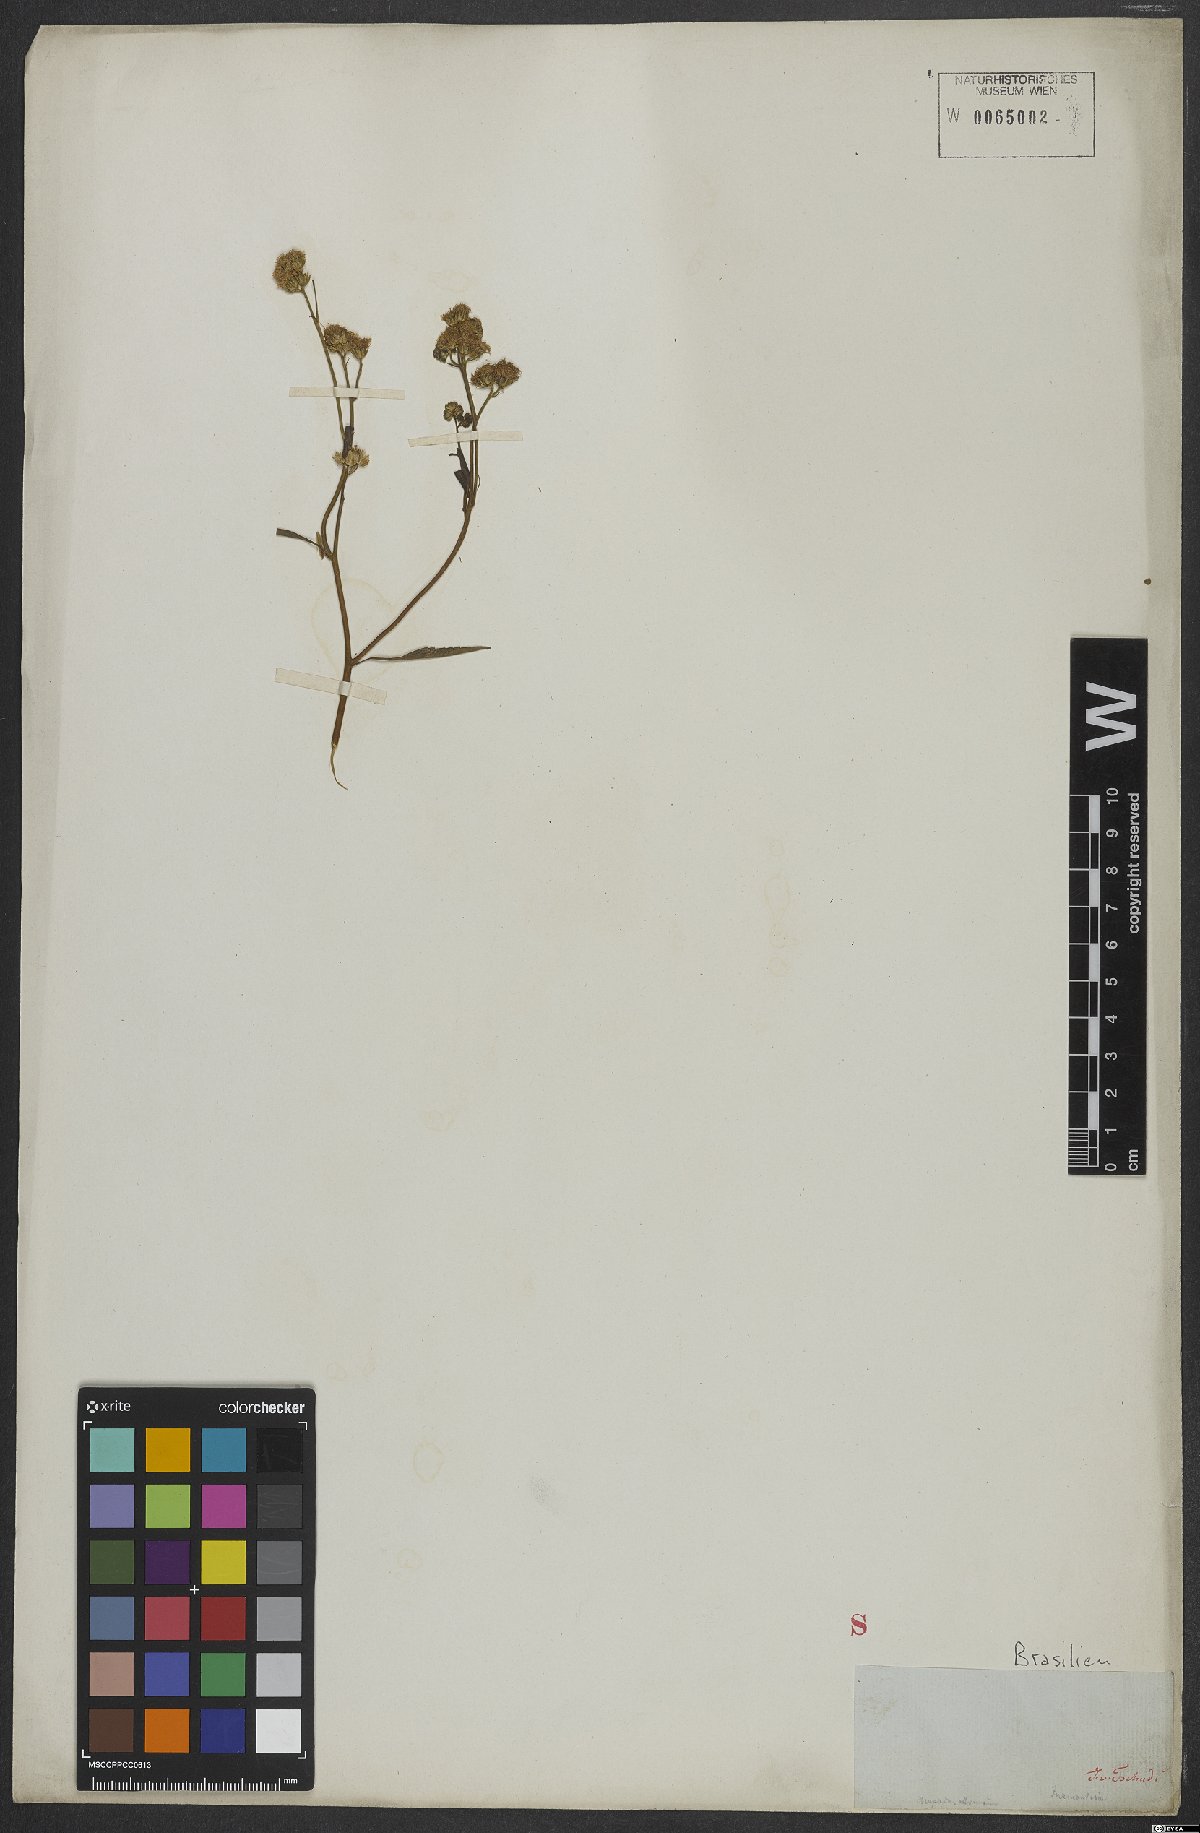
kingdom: Plantae
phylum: Tracheophyta
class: Magnoliopsida
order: Asterales
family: Asteraceae
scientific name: Asteraceae
